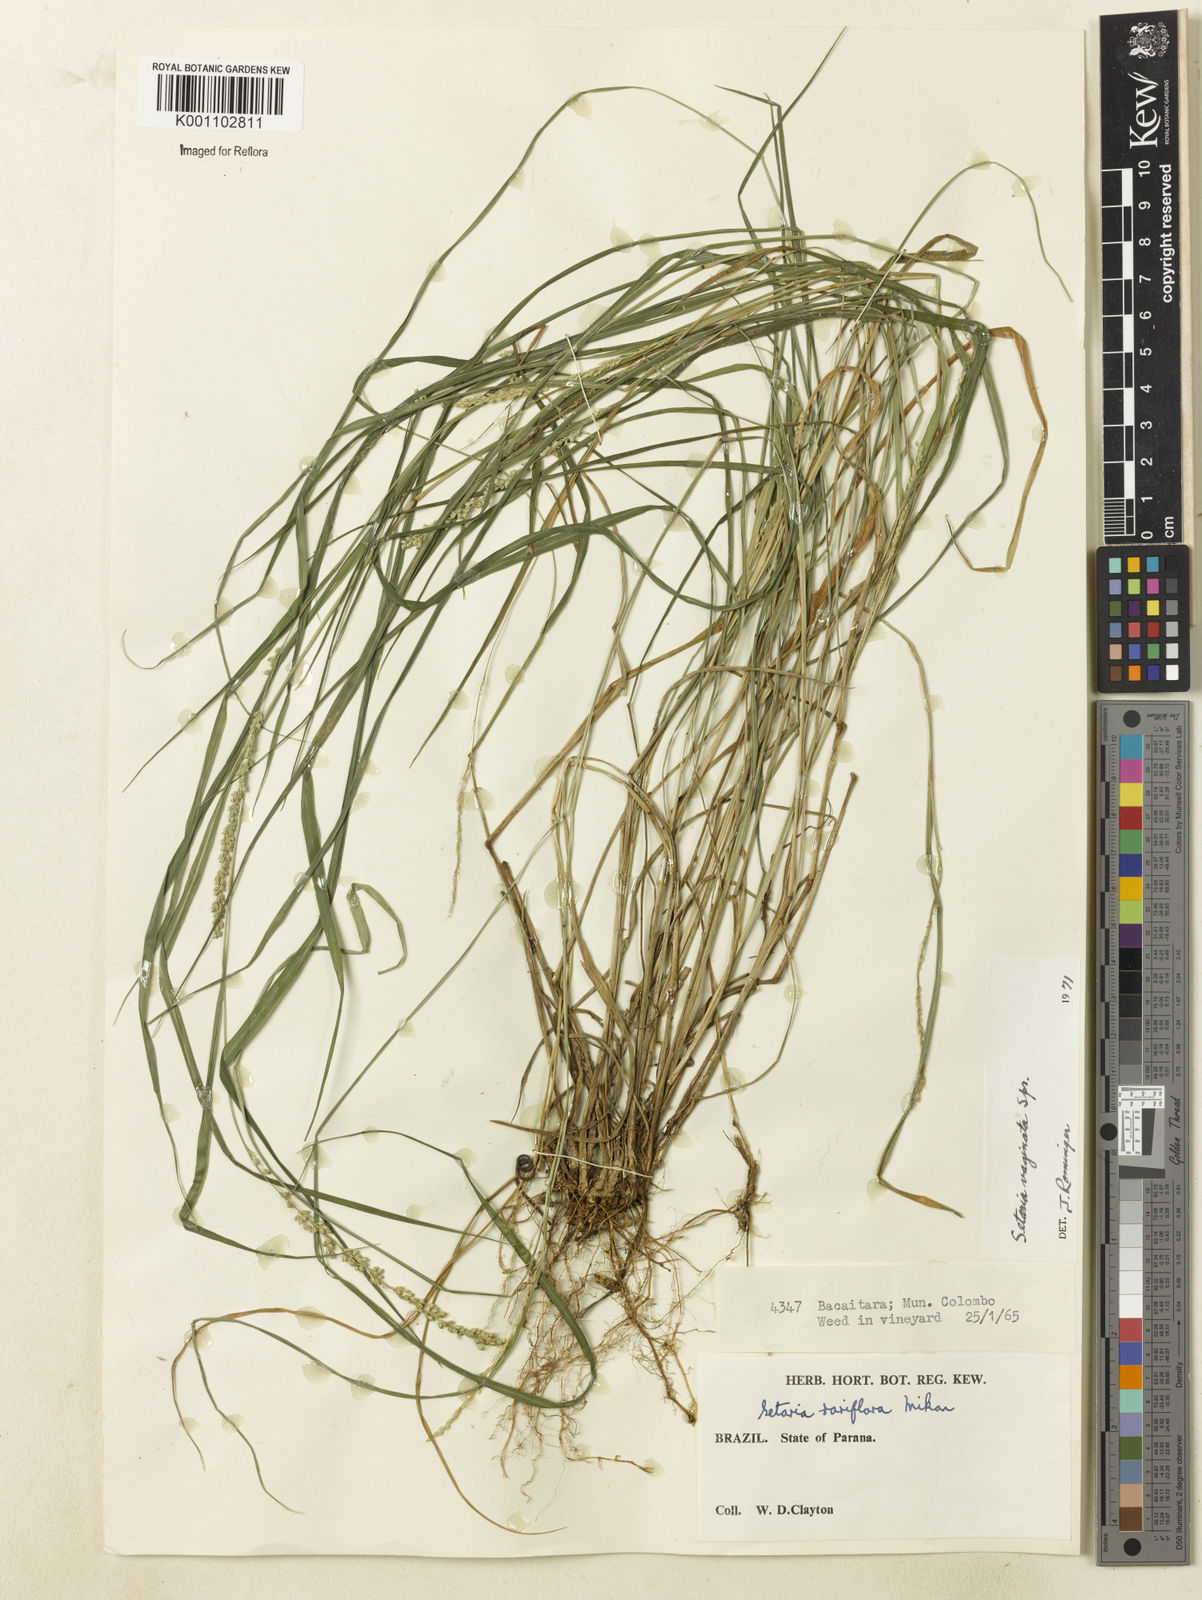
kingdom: Plantae
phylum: Tracheophyta
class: Liliopsida
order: Poales
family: Poaceae
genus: Setaria
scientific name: Setaria setosa
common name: West indies bristle grass
